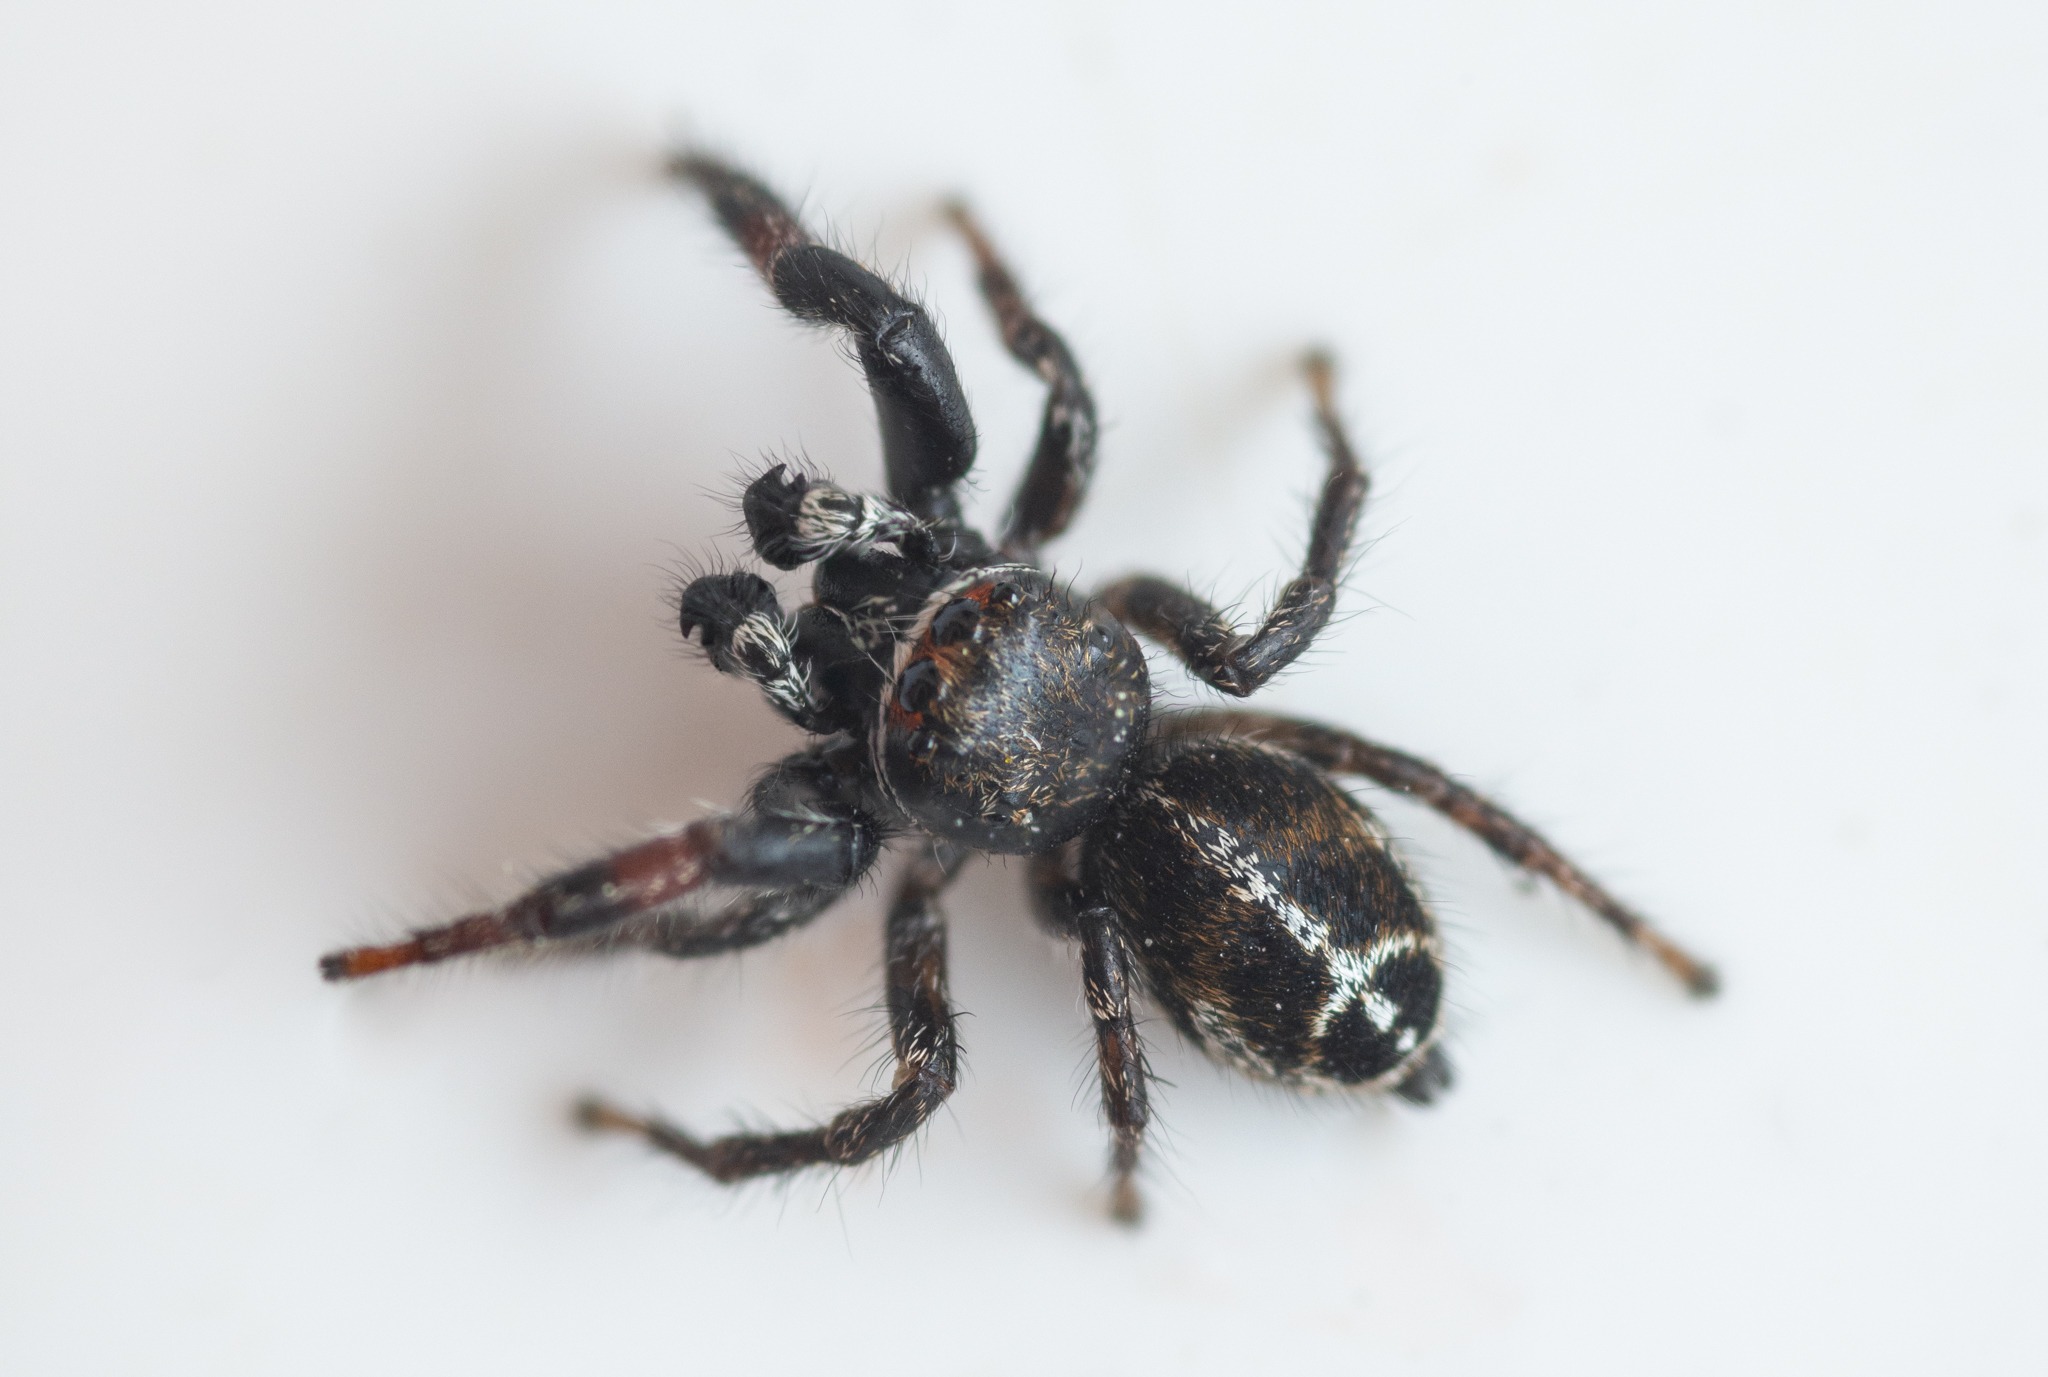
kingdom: Animalia
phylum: Arthropoda
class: Arachnida
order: Araneae
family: Salticidae
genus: Pellenes
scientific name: Pellenes tripunctatus
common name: Treplettet springedderkop
